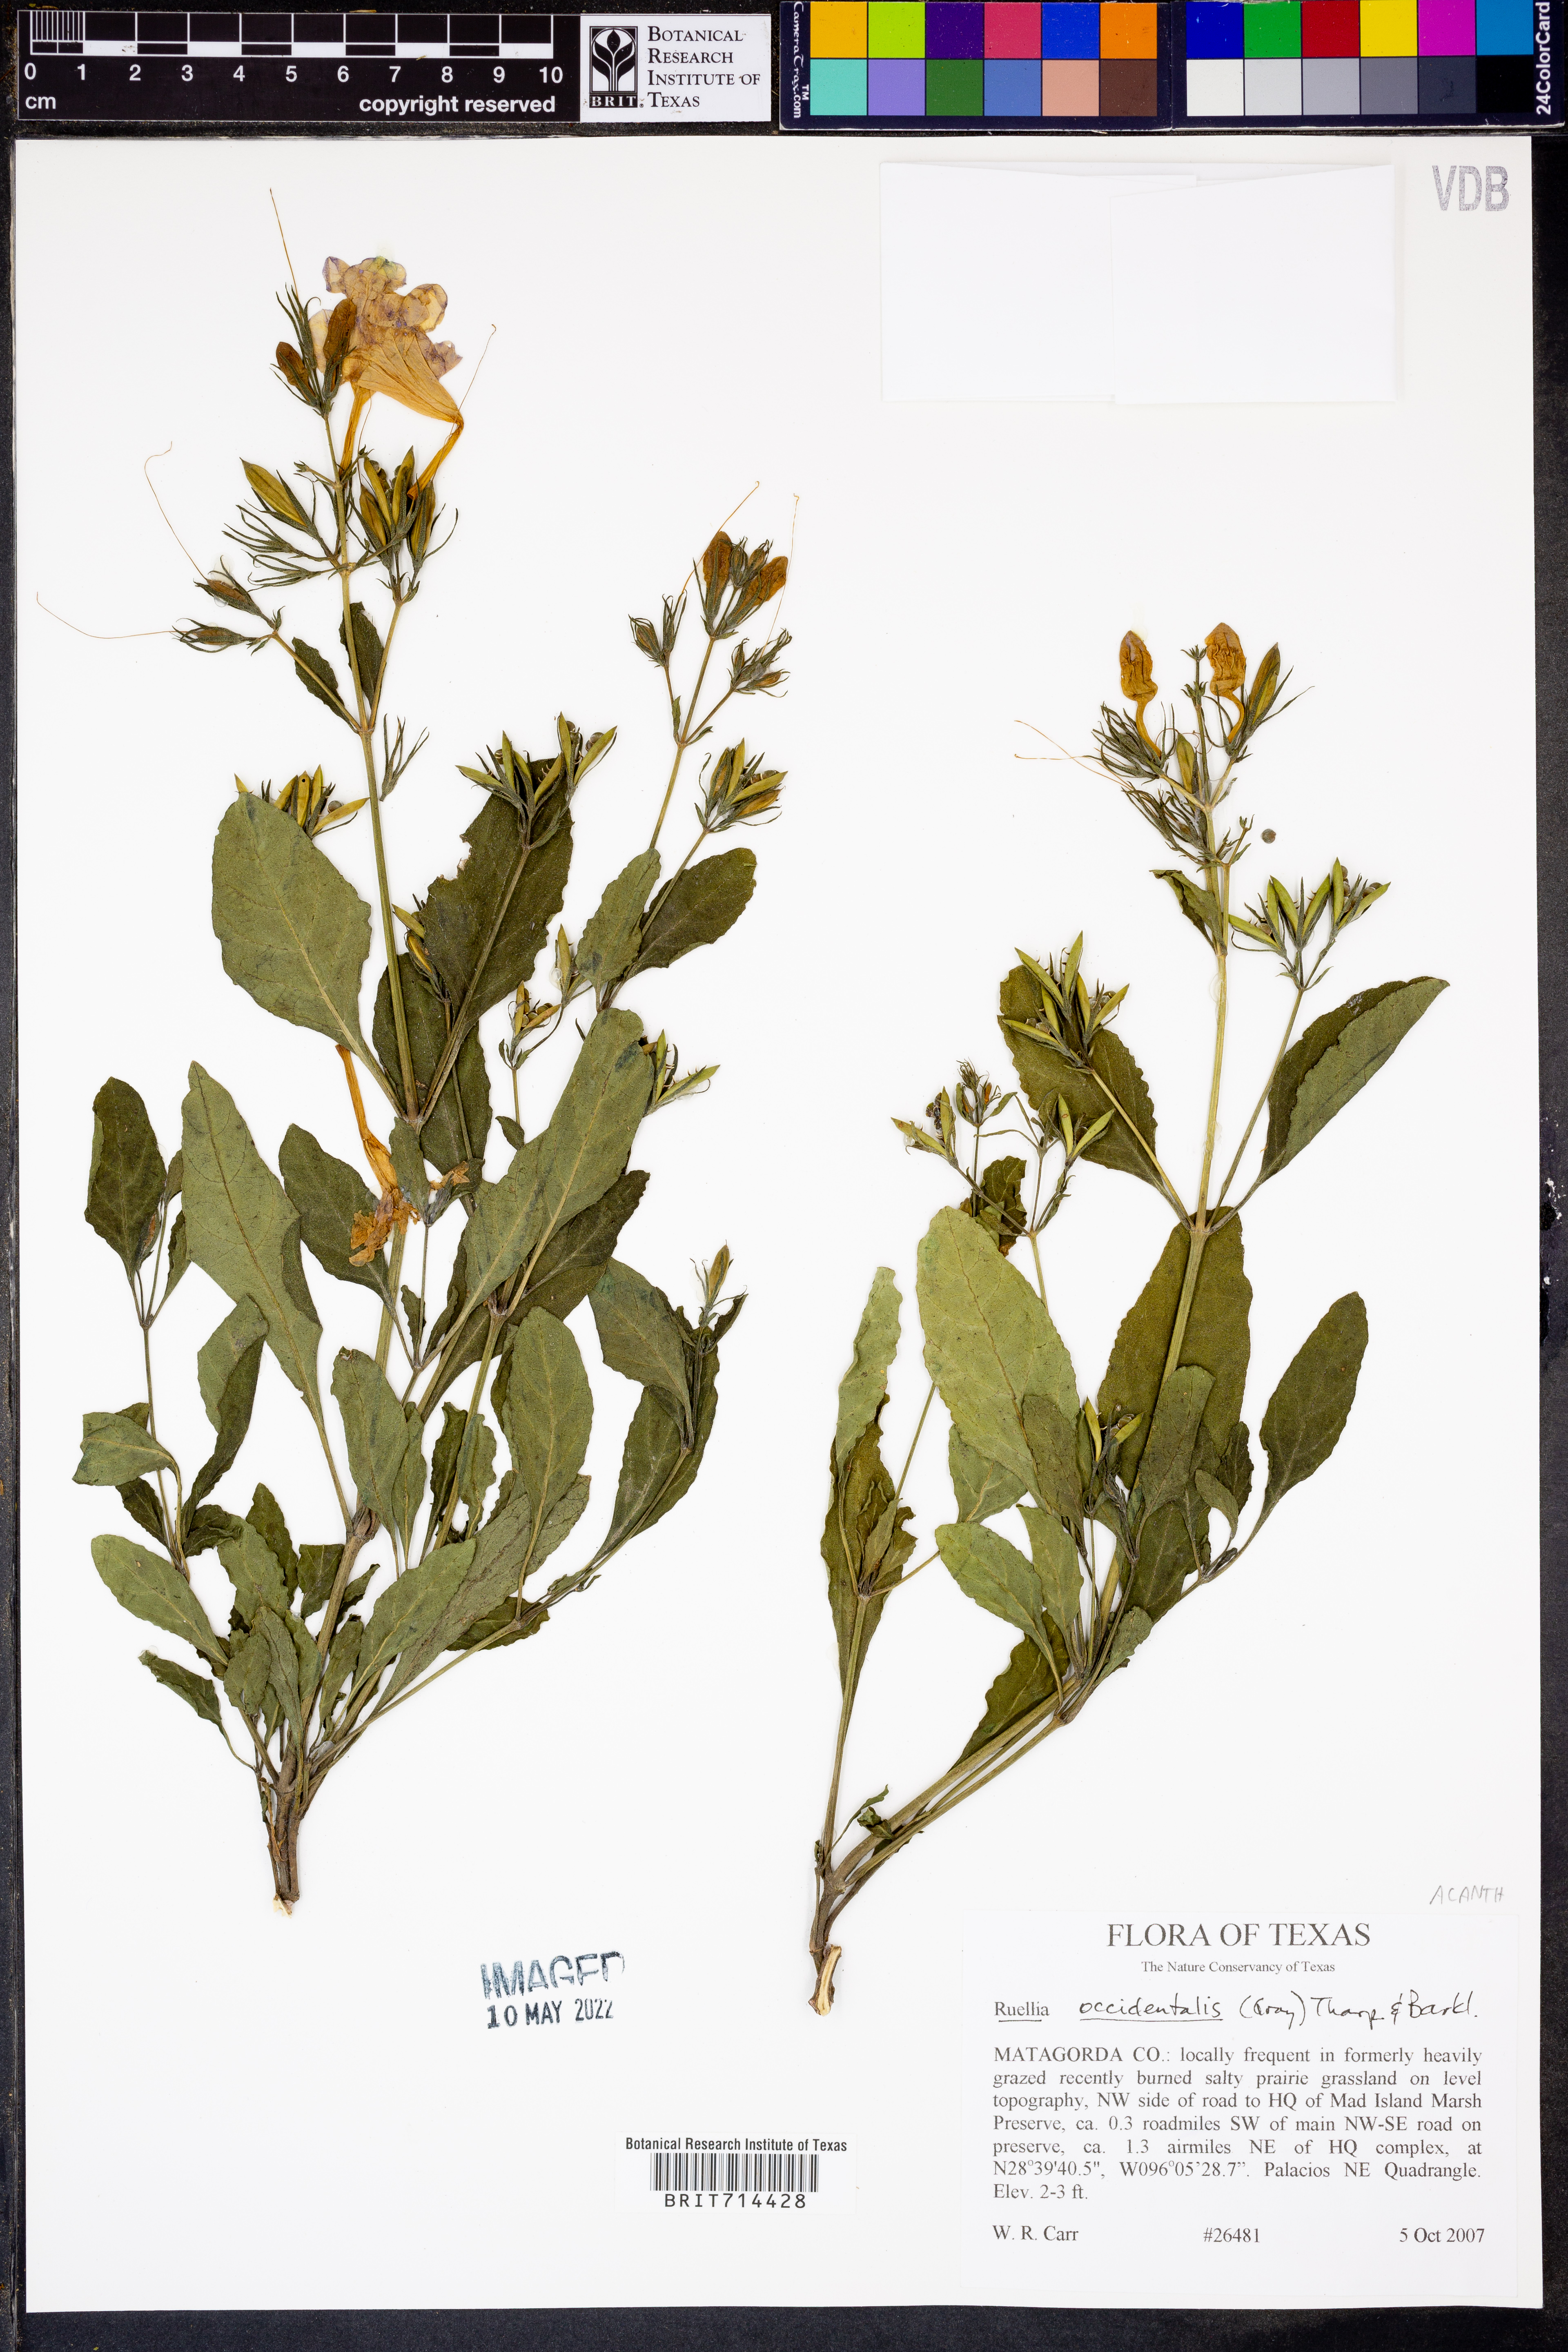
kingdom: Plantae
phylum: Tracheophyta
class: Magnoliopsida
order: Lamiales
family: Acanthaceae
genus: Ruellia
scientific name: Ruellia ciliatiflora
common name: Hairyflower wild petunia
